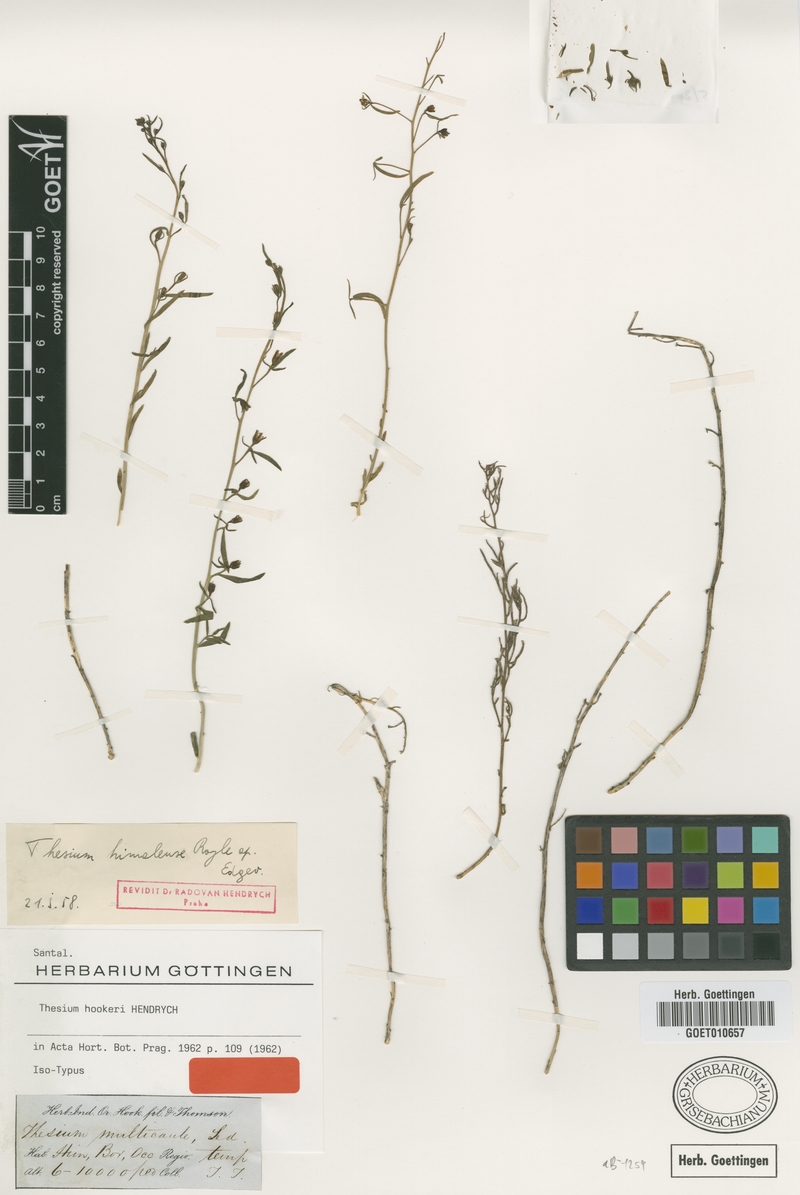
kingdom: Plantae
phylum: Tracheophyta
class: Magnoliopsida
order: Santalales
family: Thesiaceae
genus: Thesium
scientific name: Thesium hookeri
